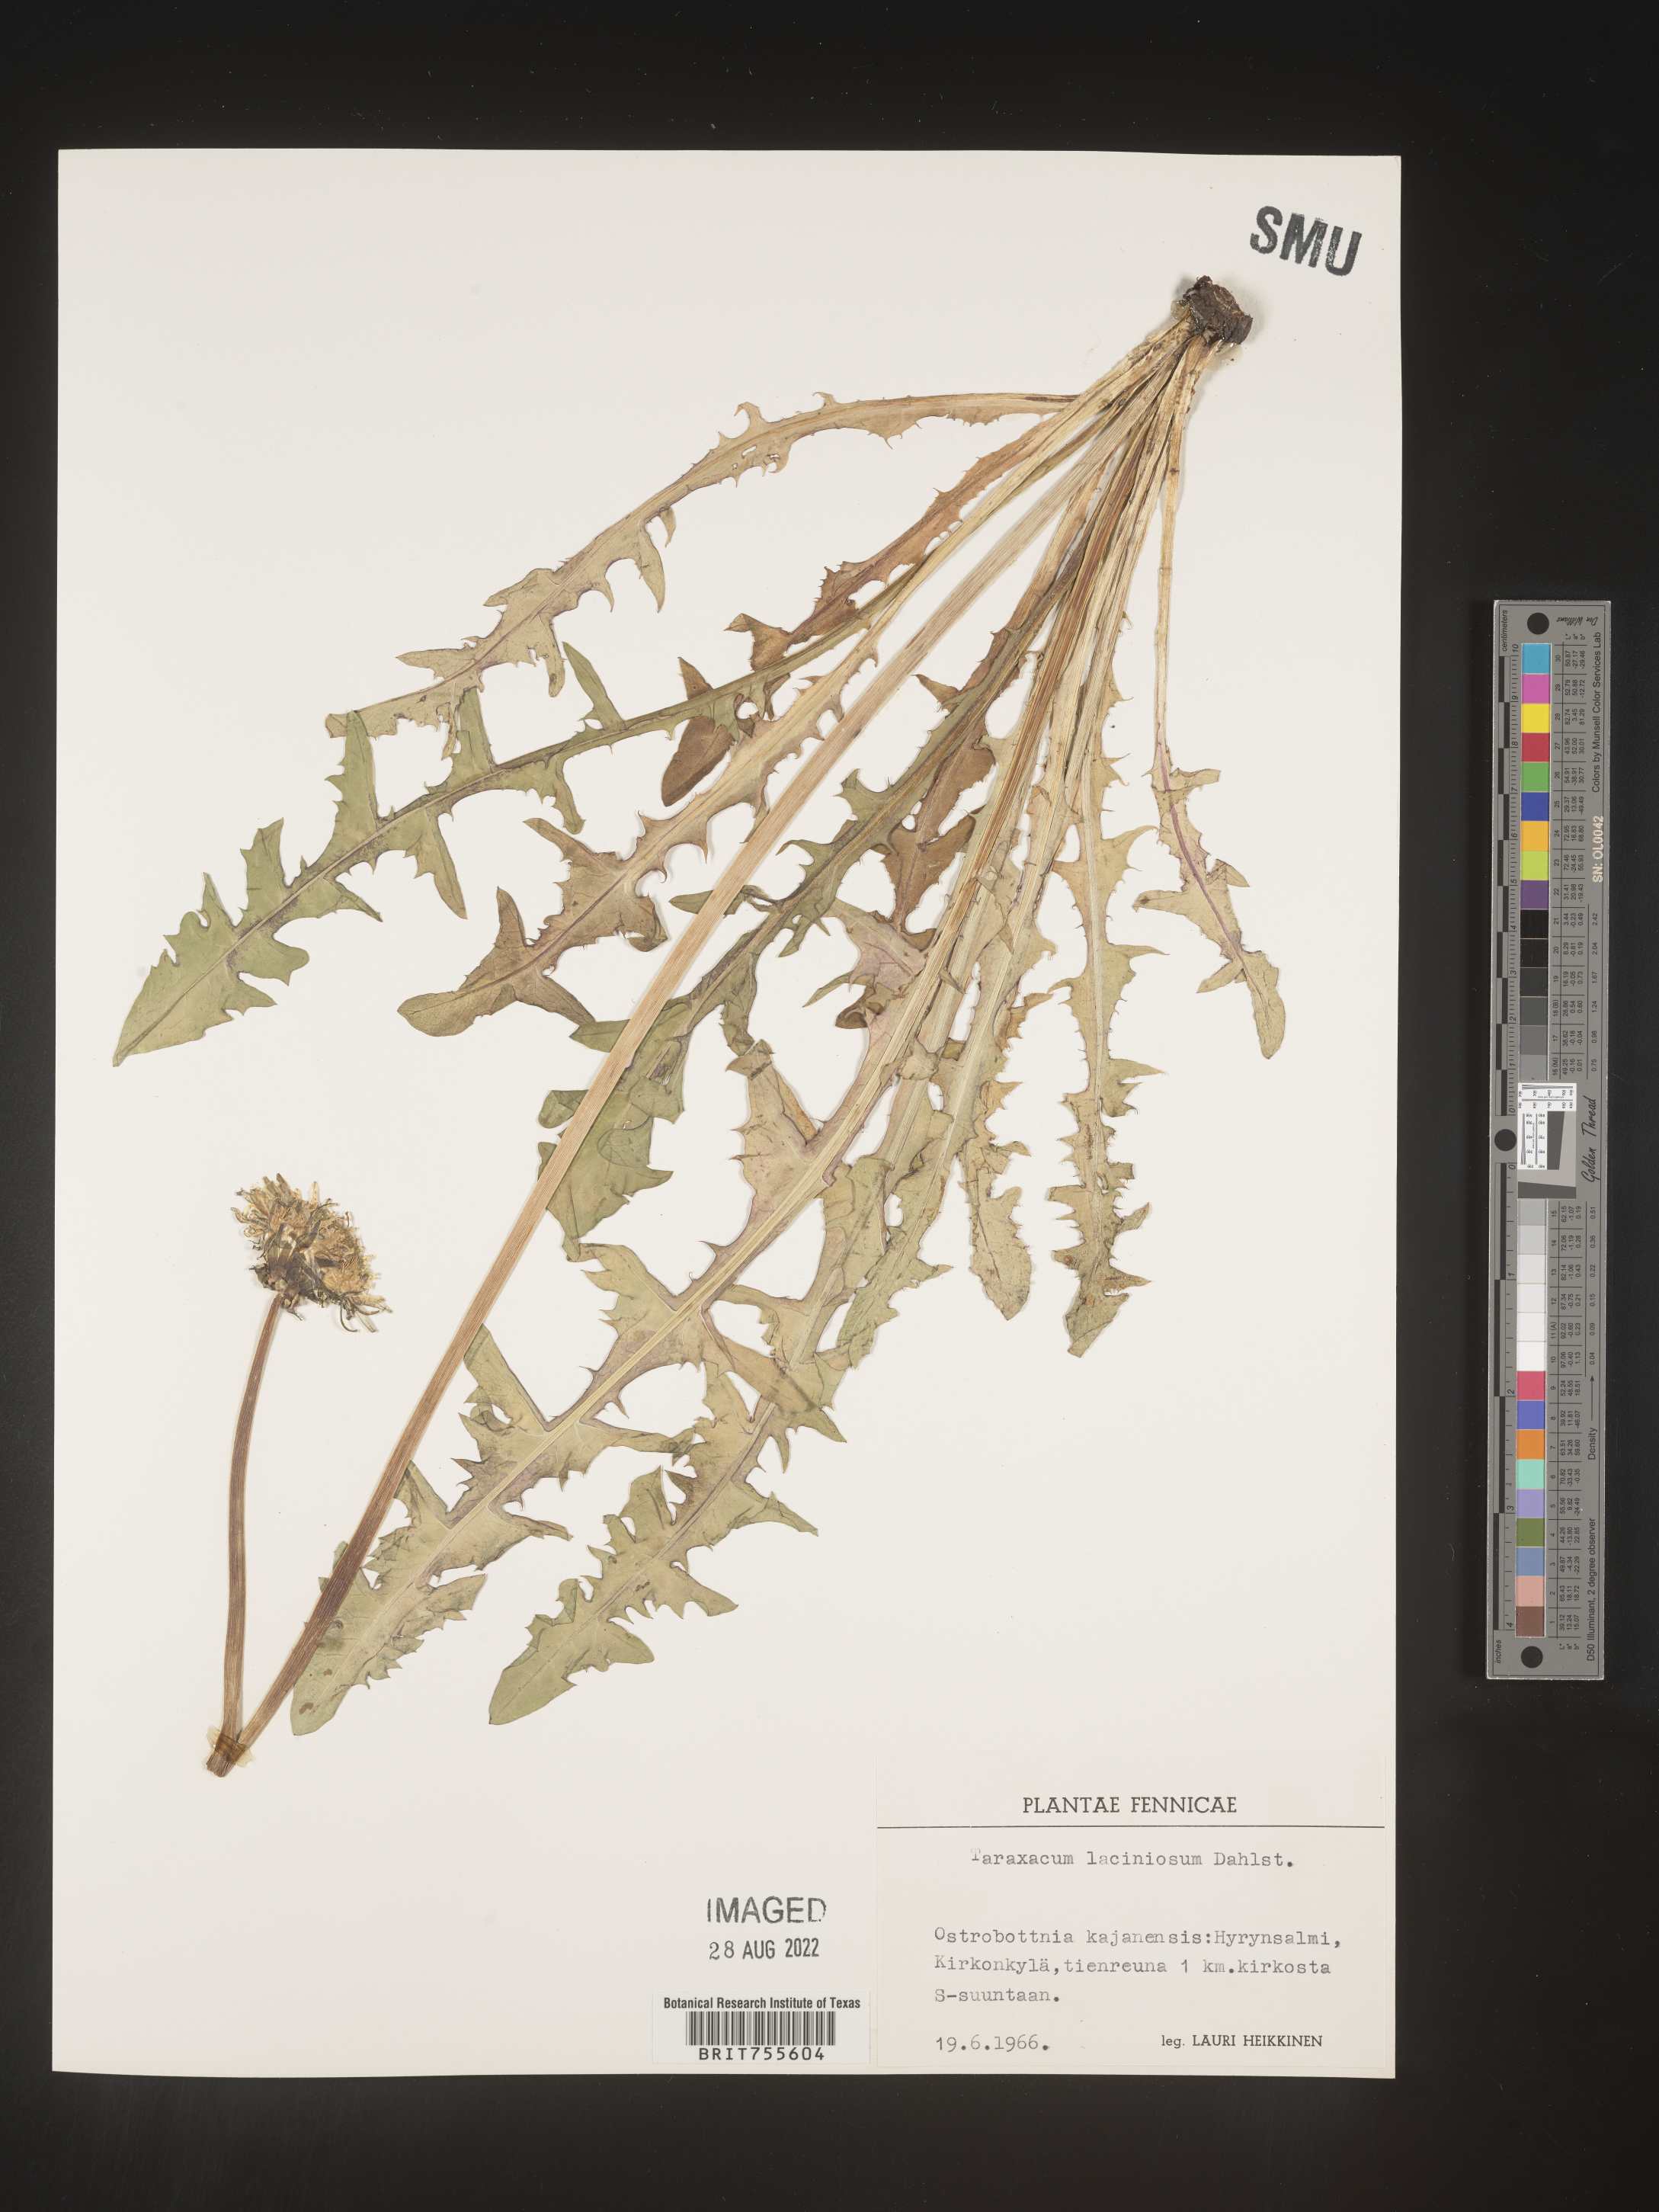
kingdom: Plantae
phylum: Tracheophyta
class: Magnoliopsida
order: Asterales
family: Asteraceae
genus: Taraxacum
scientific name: Taraxacum
